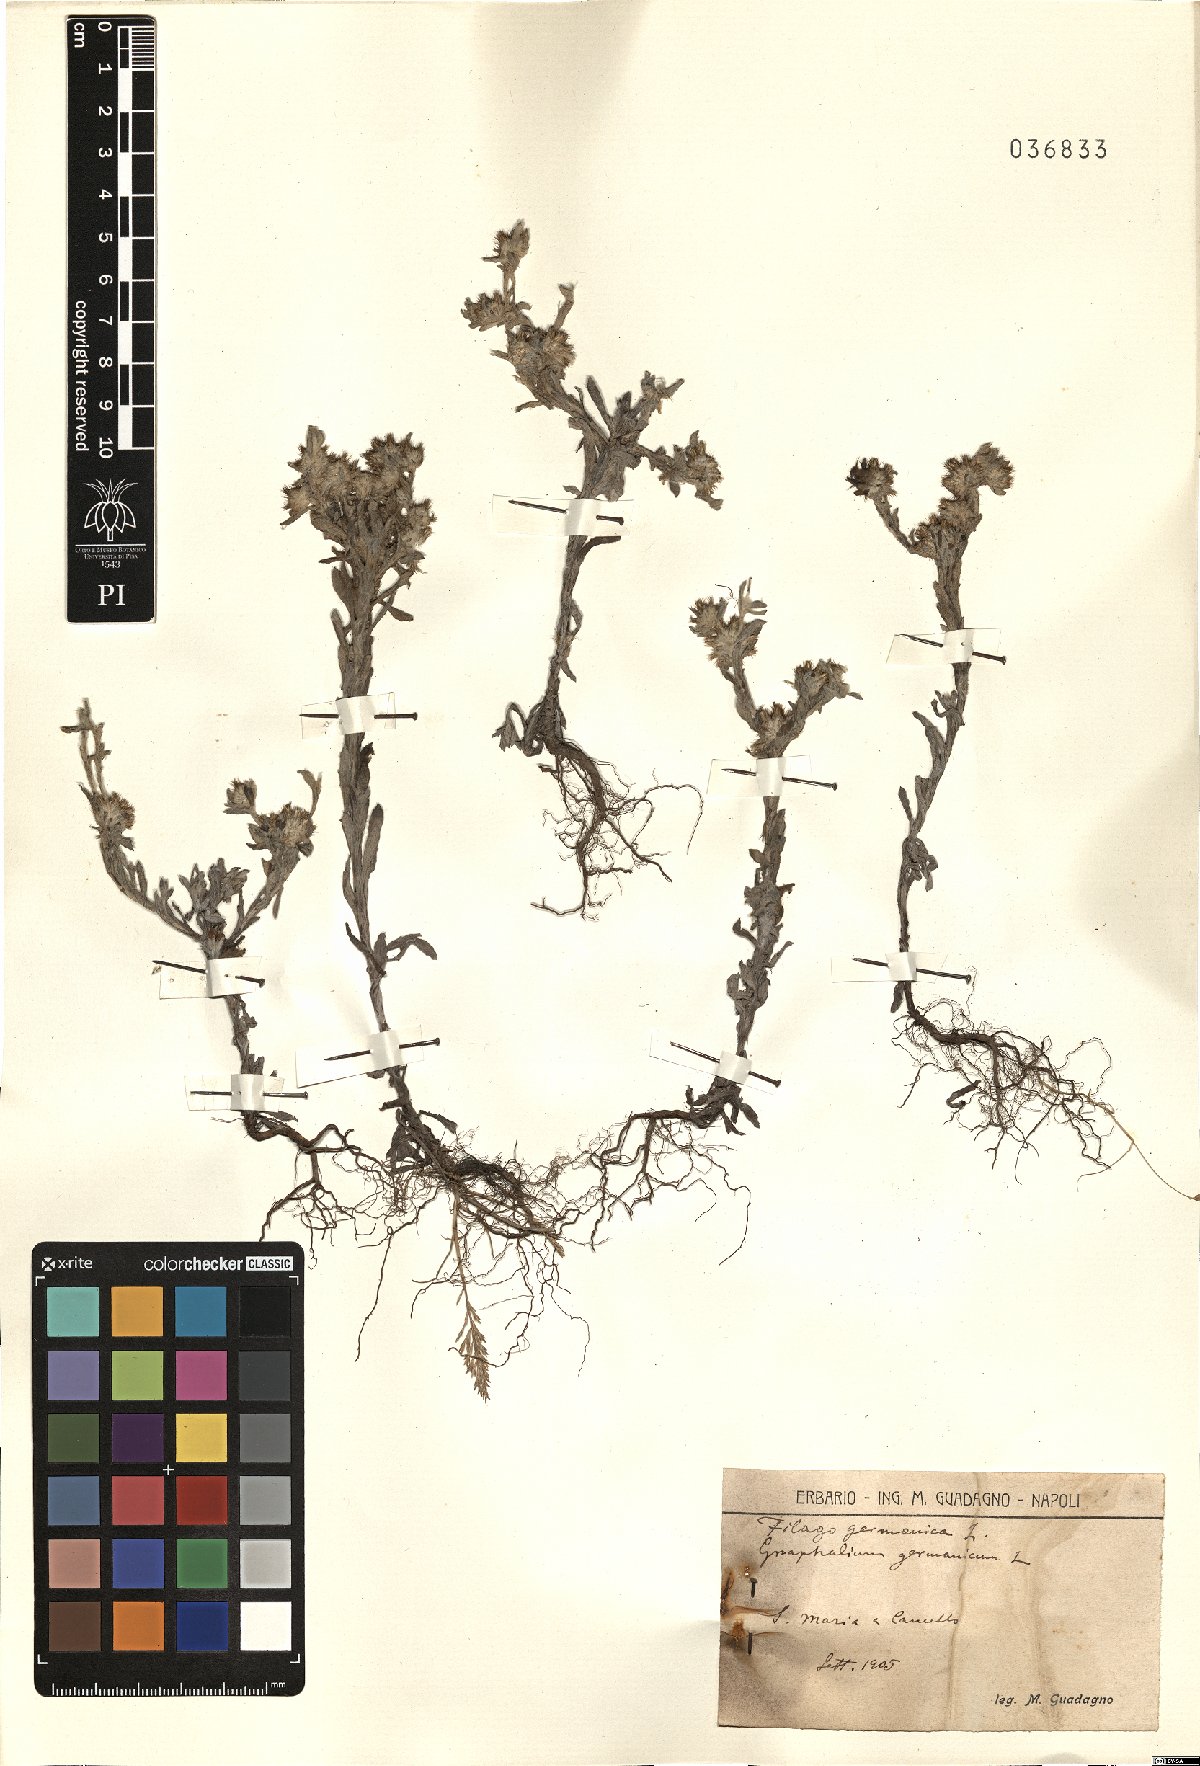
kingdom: Plantae
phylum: Tracheophyta
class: Magnoliopsida
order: Asterales
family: Asteraceae
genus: Filago
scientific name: Filago germanica
